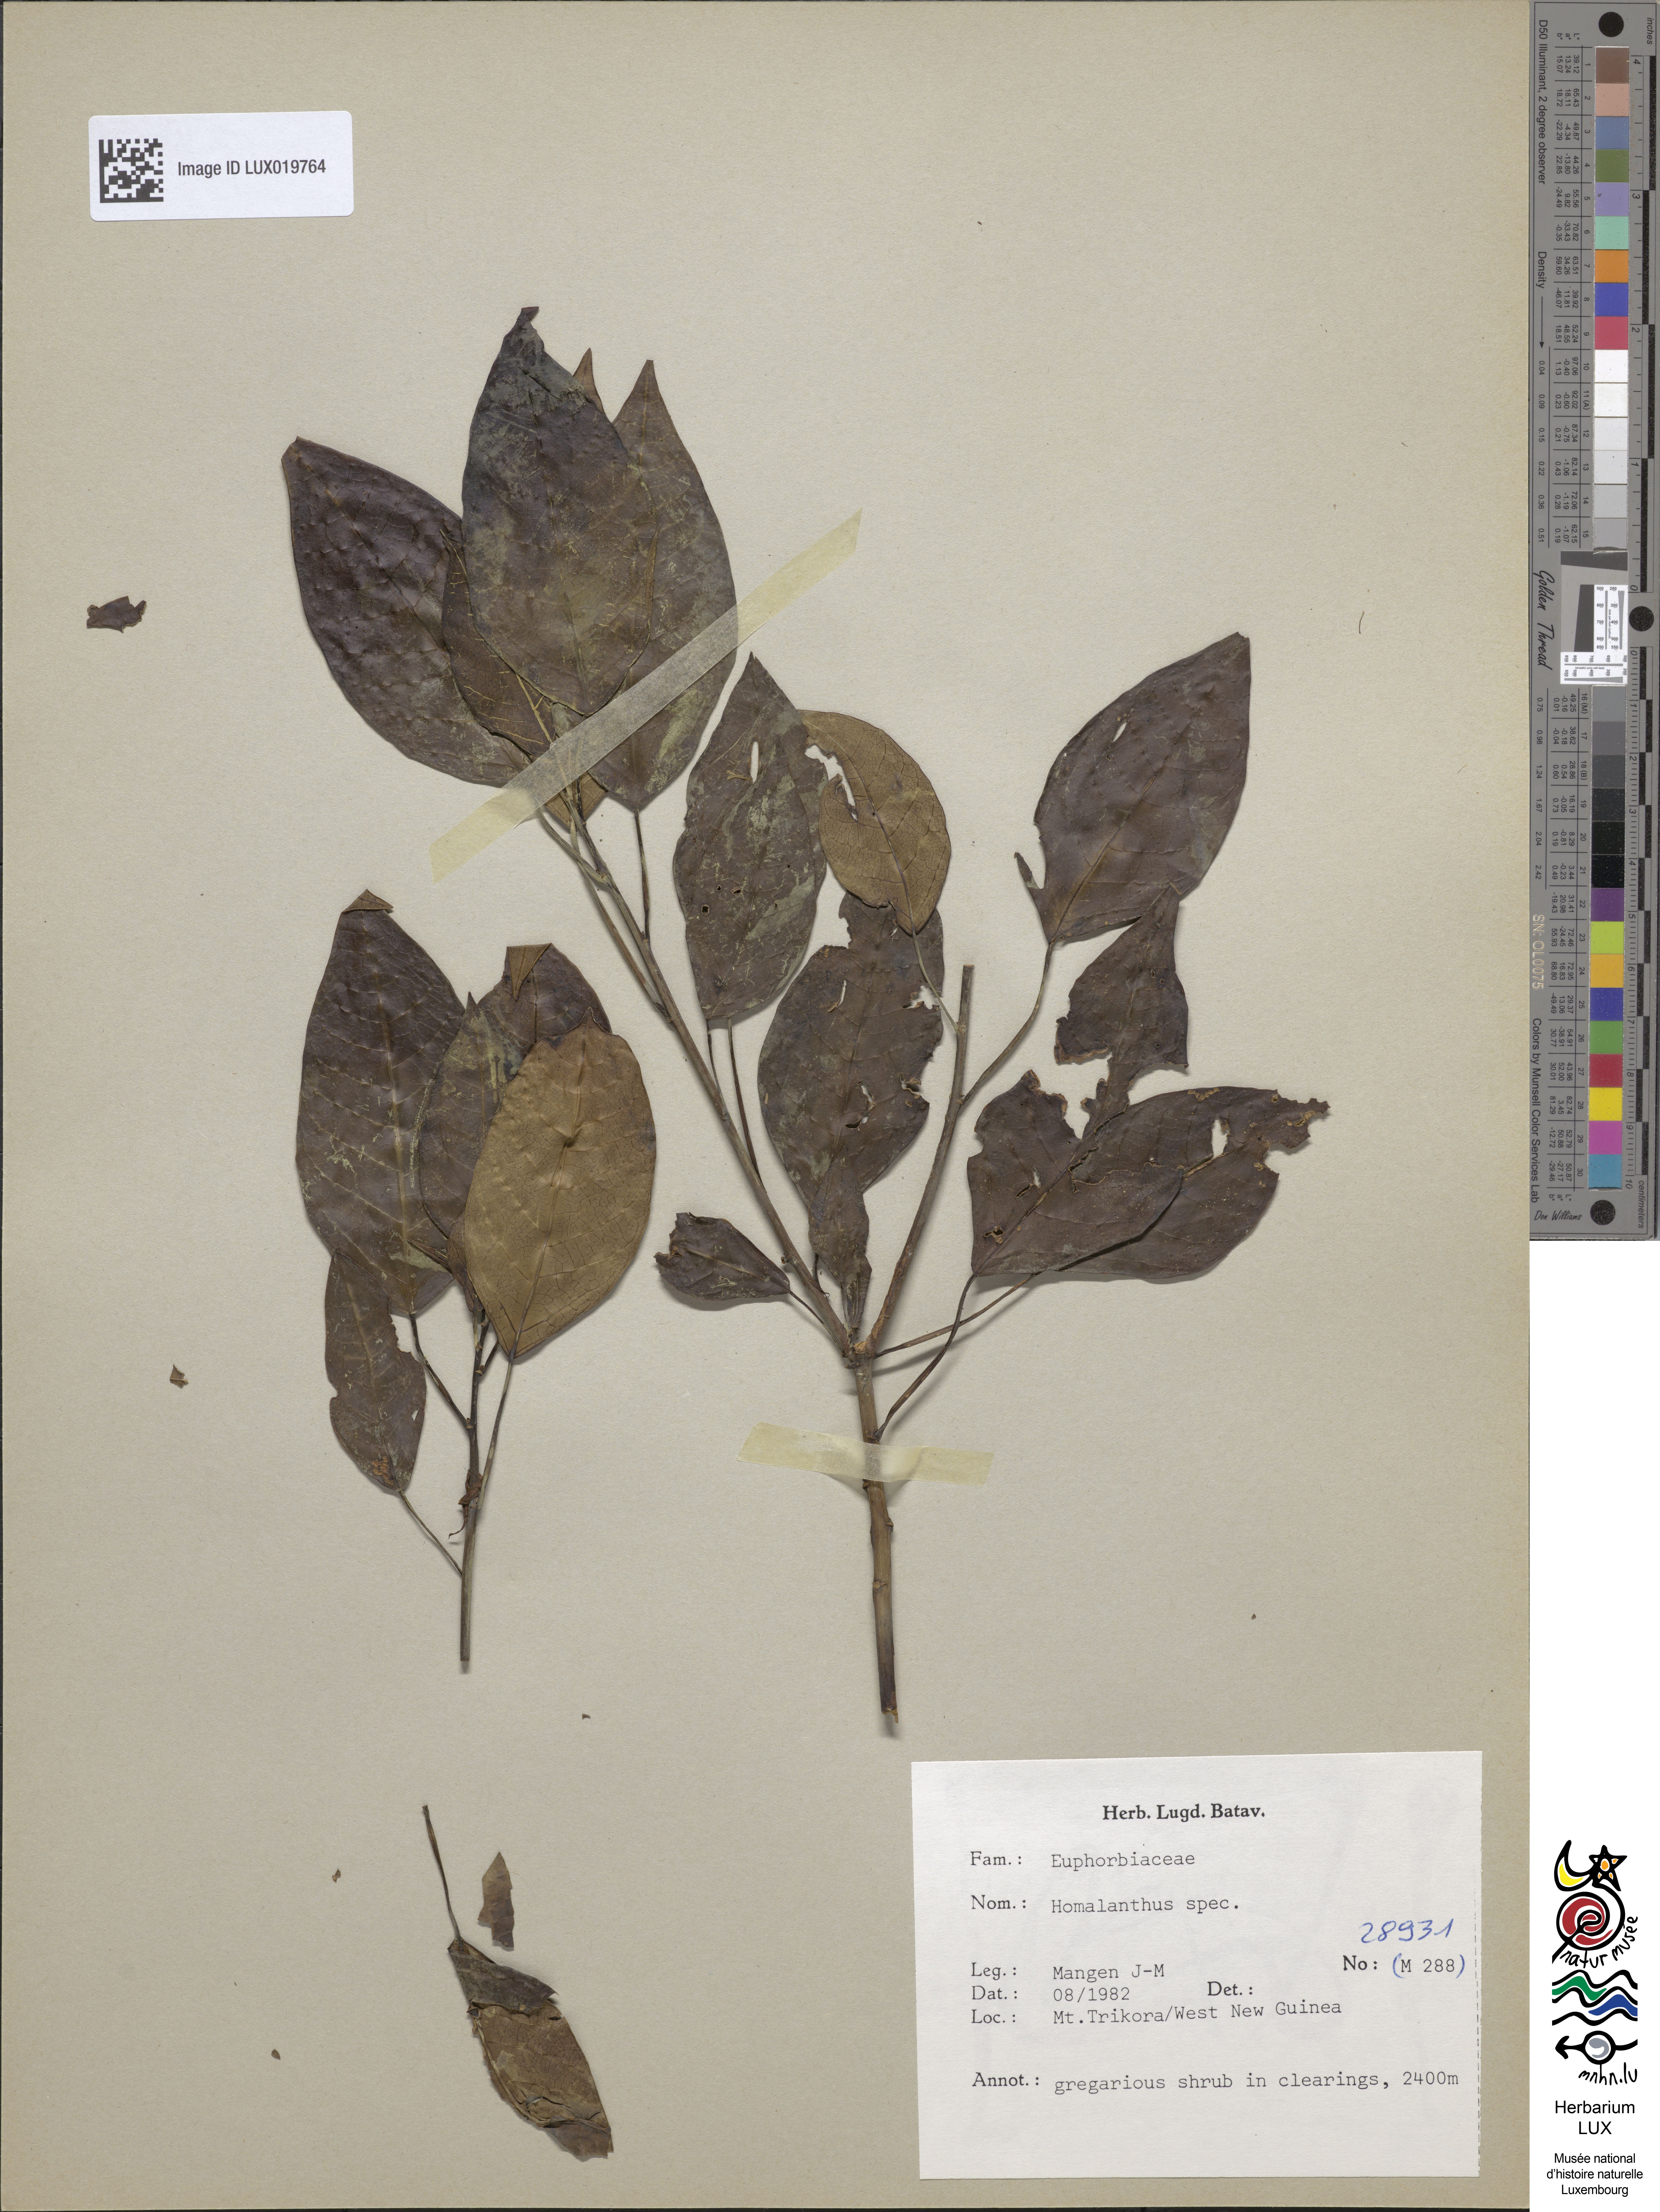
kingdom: Plantae
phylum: Tracheophyta
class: Magnoliopsida
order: Malpighiales
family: Euphorbiaceae
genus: Homalanthus
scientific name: Homalanthus
